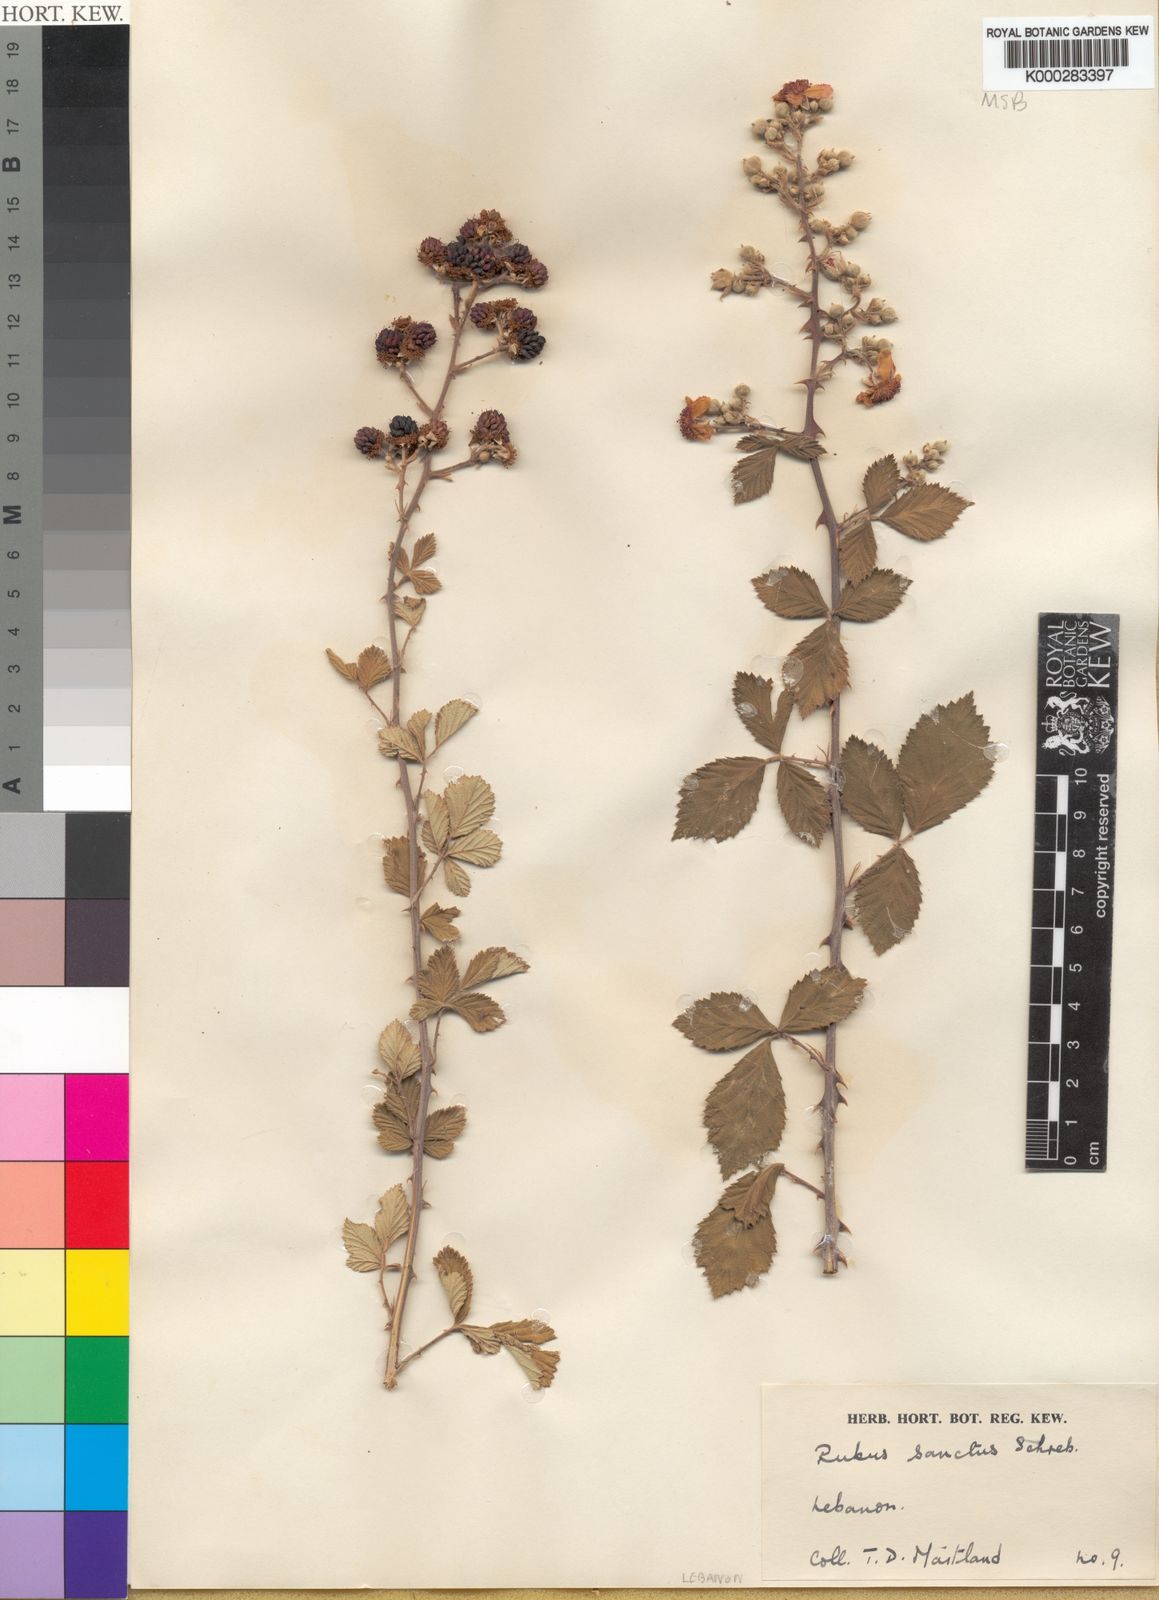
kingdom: Plantae
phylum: Tracheophyta
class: Magnoliopsida
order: Rosales
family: Rosaceae
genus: Rubus
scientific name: Rubus sanctus
